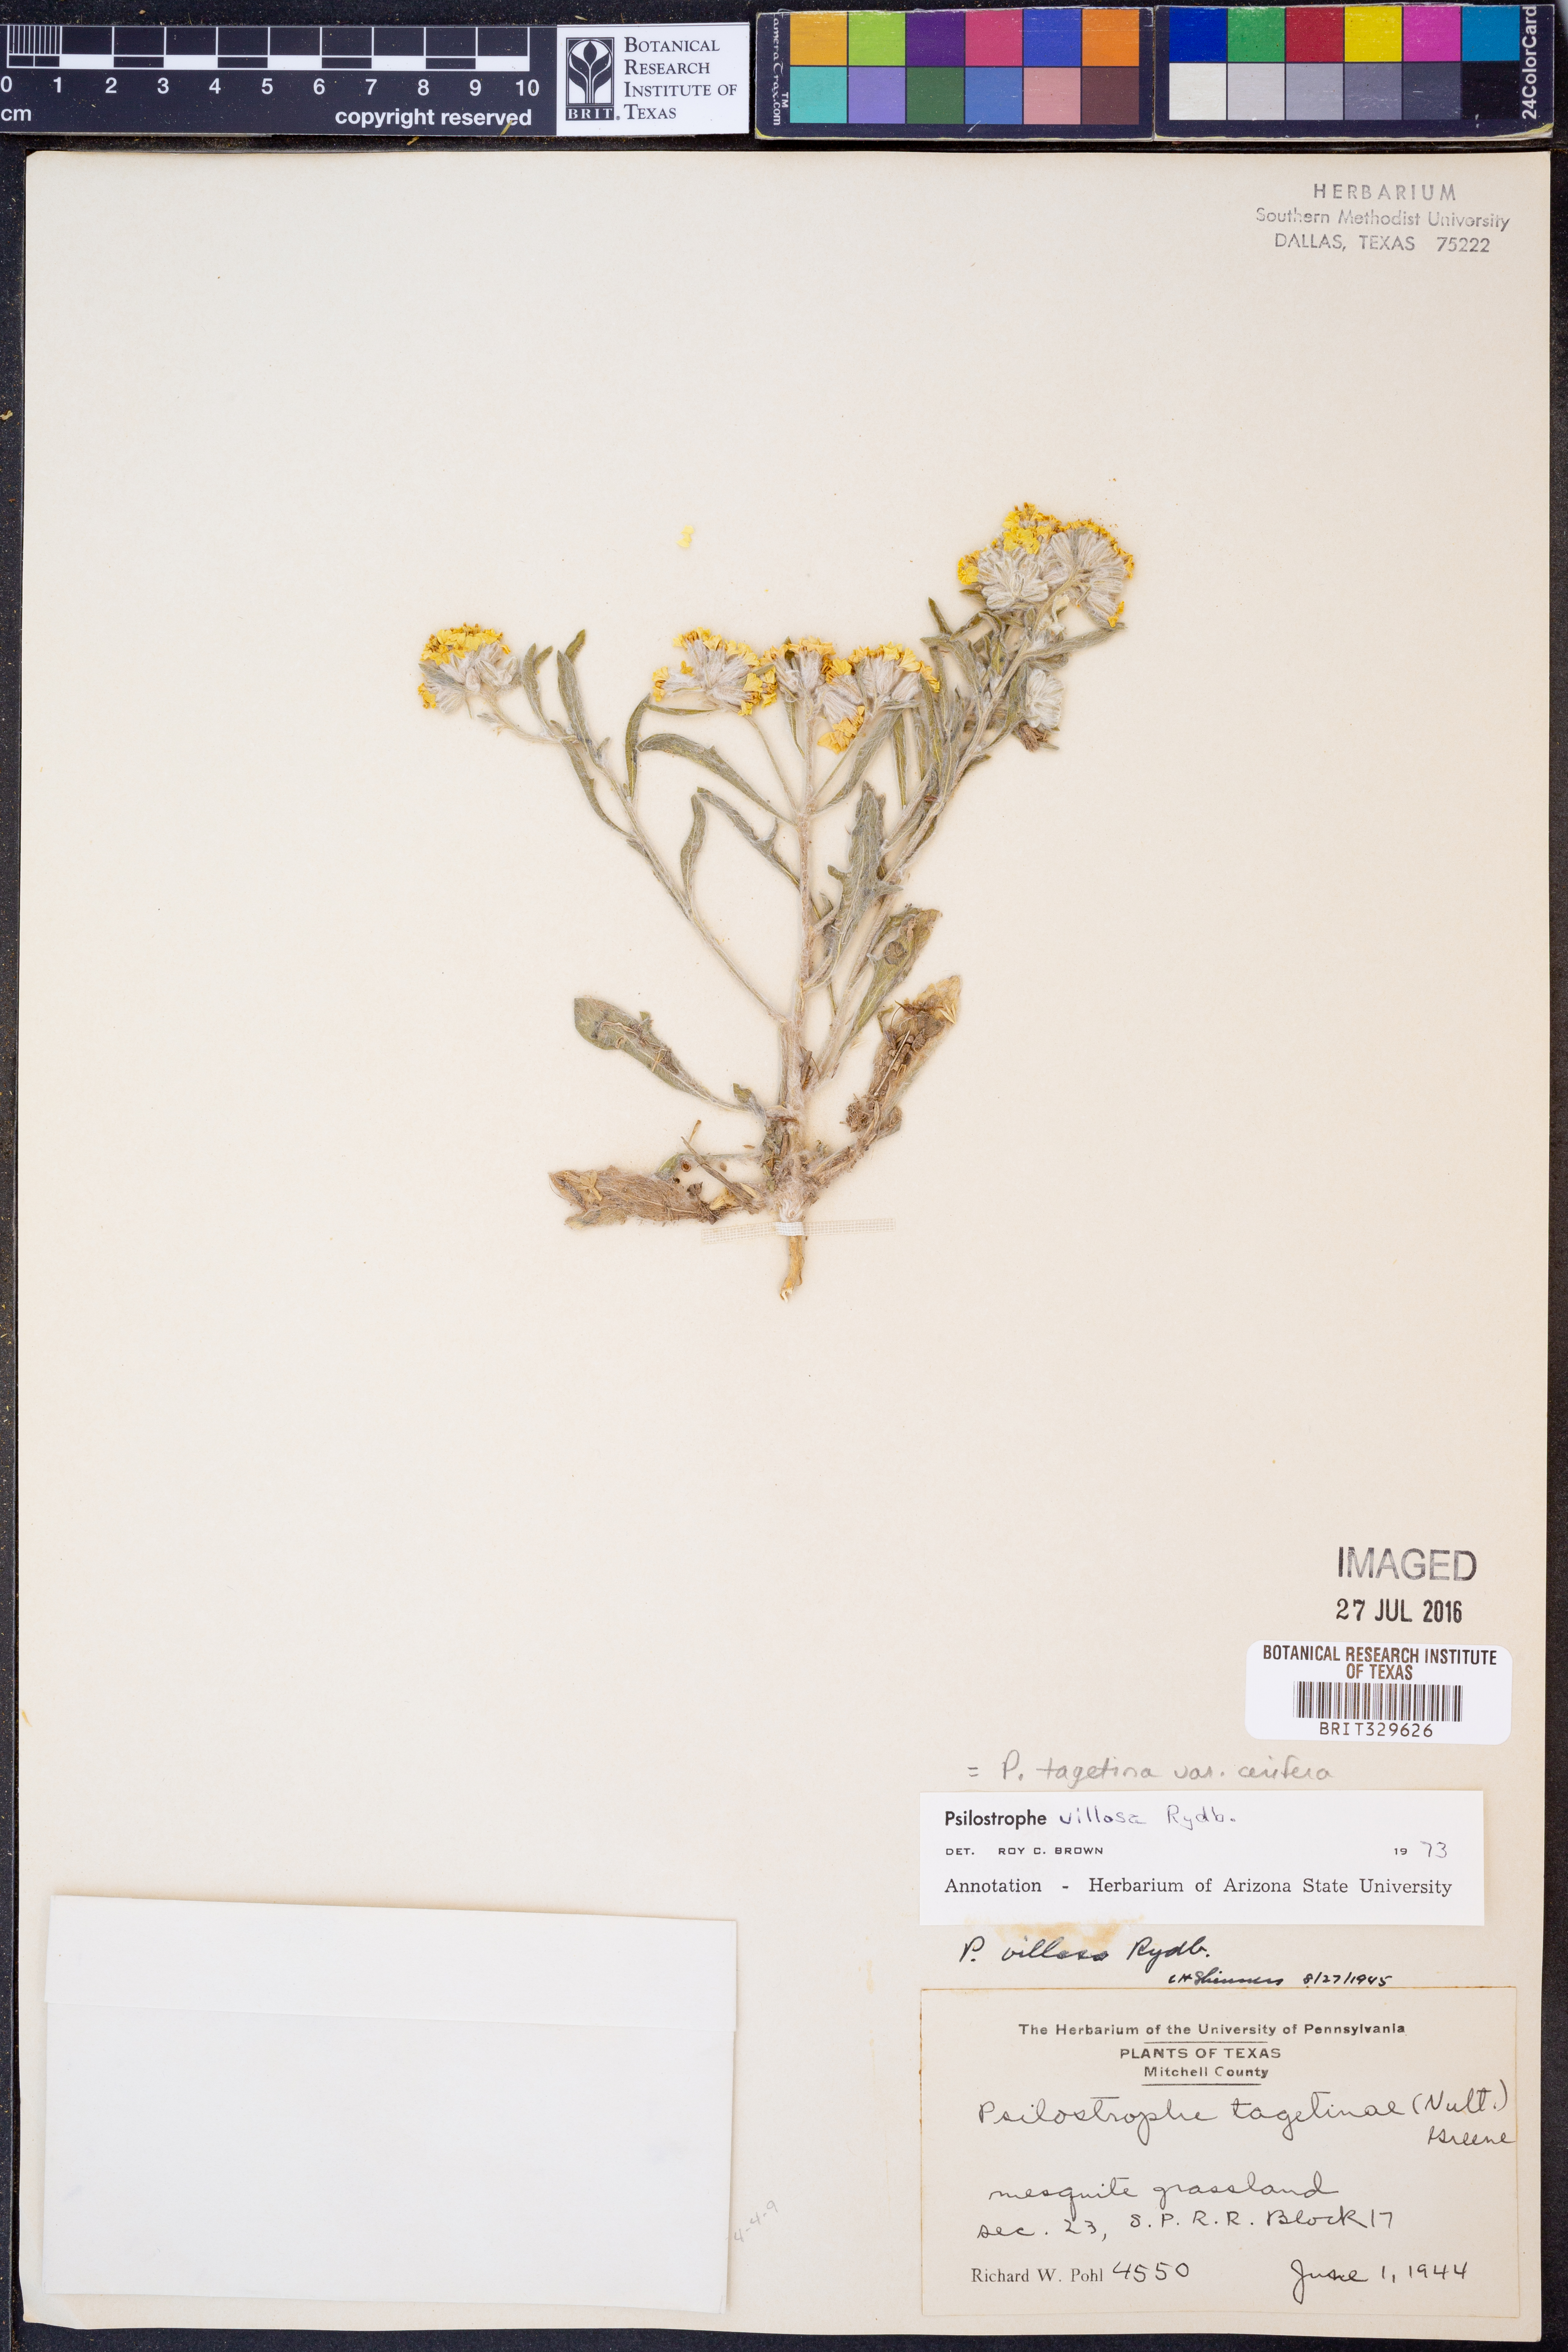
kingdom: Plantae
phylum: Tracheophyta
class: Magnoliopsida
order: Asterales
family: Asteraceae
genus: Psilostrophe
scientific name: Psilostrophe villosa
